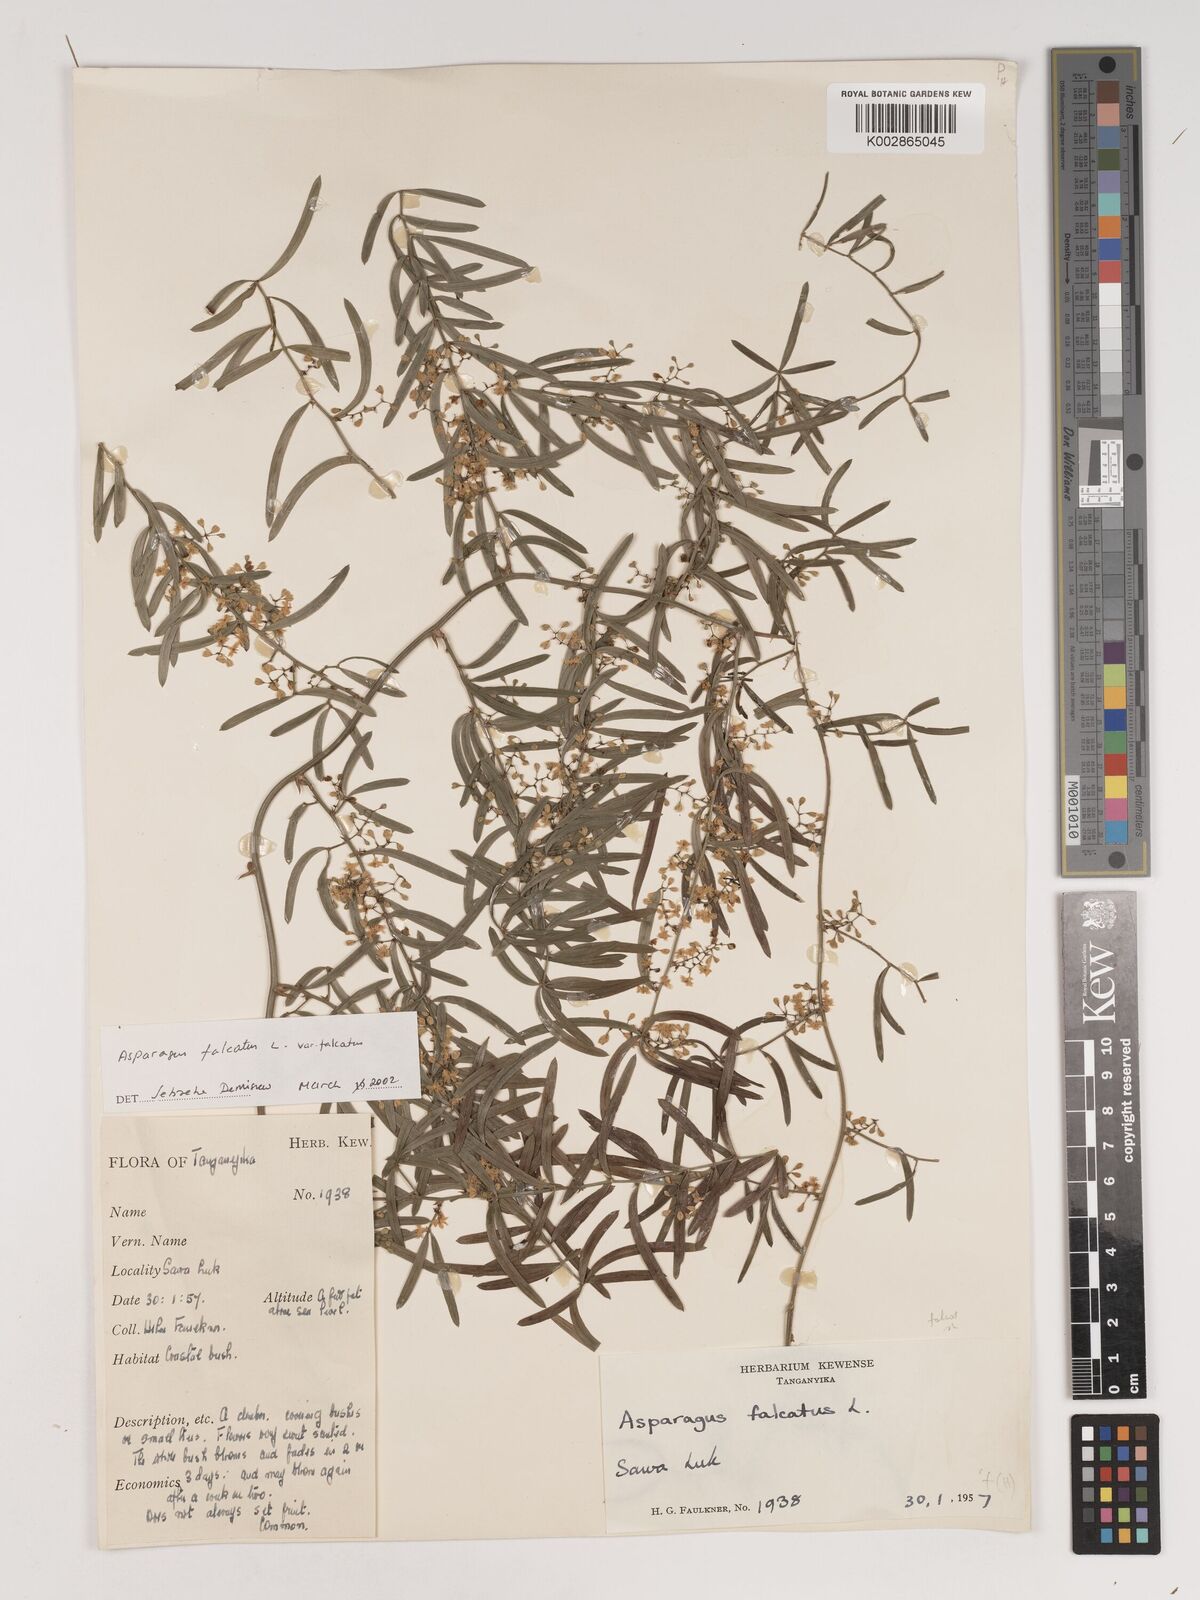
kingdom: Plantae
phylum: Tracheophyta
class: Liliopsida
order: Asparagales
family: Asparagaceae
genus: Asparagus
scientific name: Asparagus falcatus
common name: Asparagus
